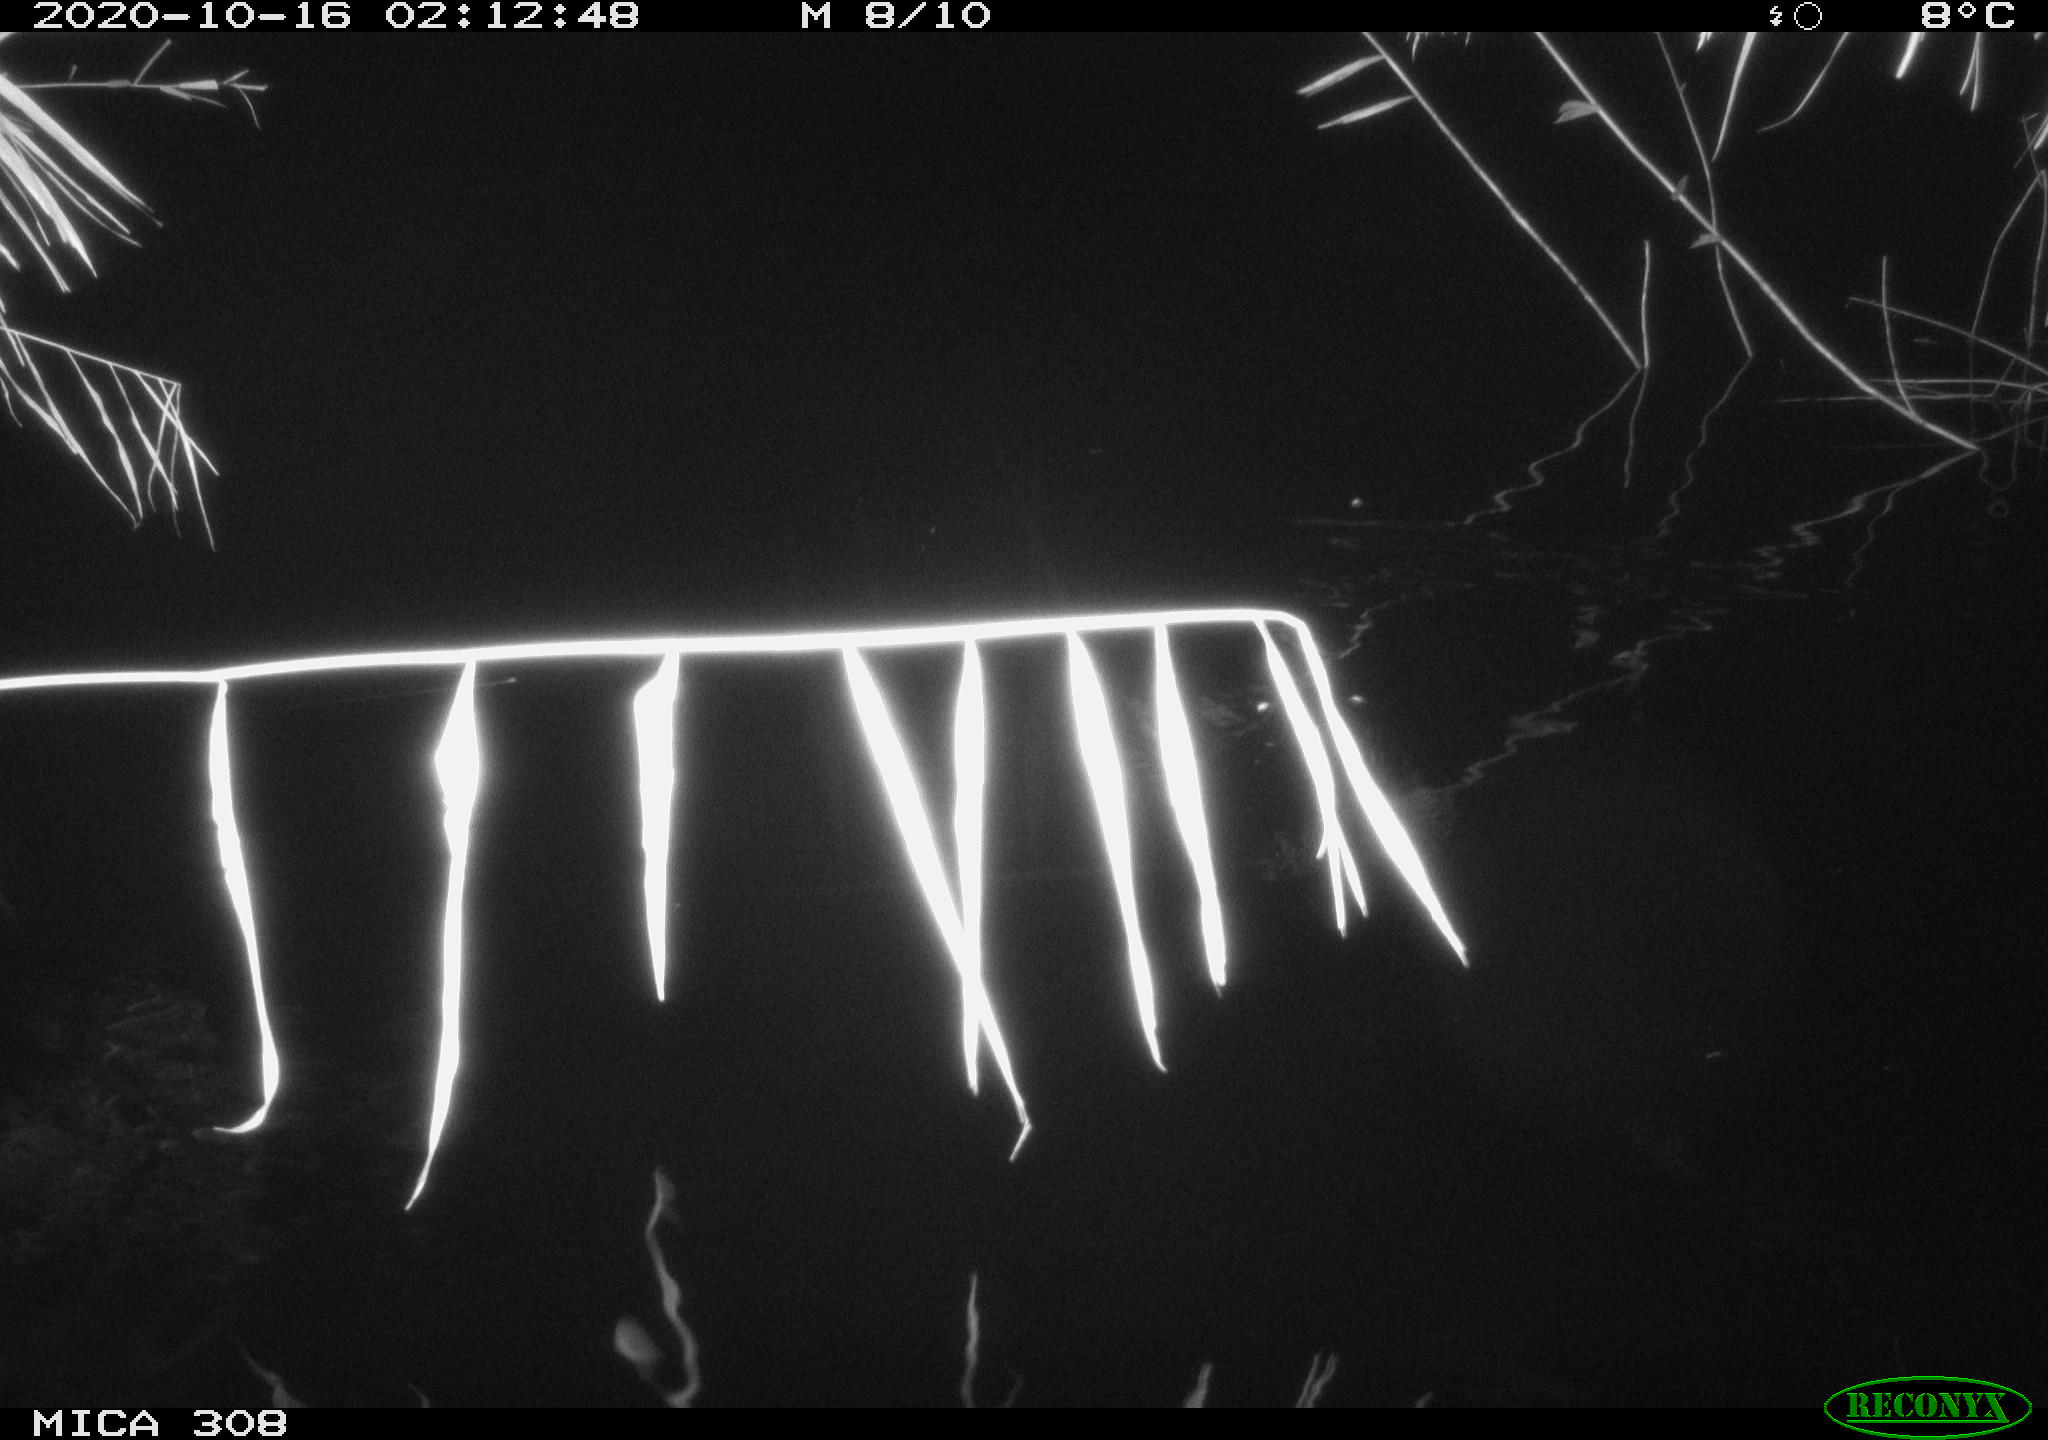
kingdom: Animalia
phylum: Chordata
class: Mammalia
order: Rodentia
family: Muridae
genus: Rattus
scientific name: Rattus norvegicus
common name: Brown rat
